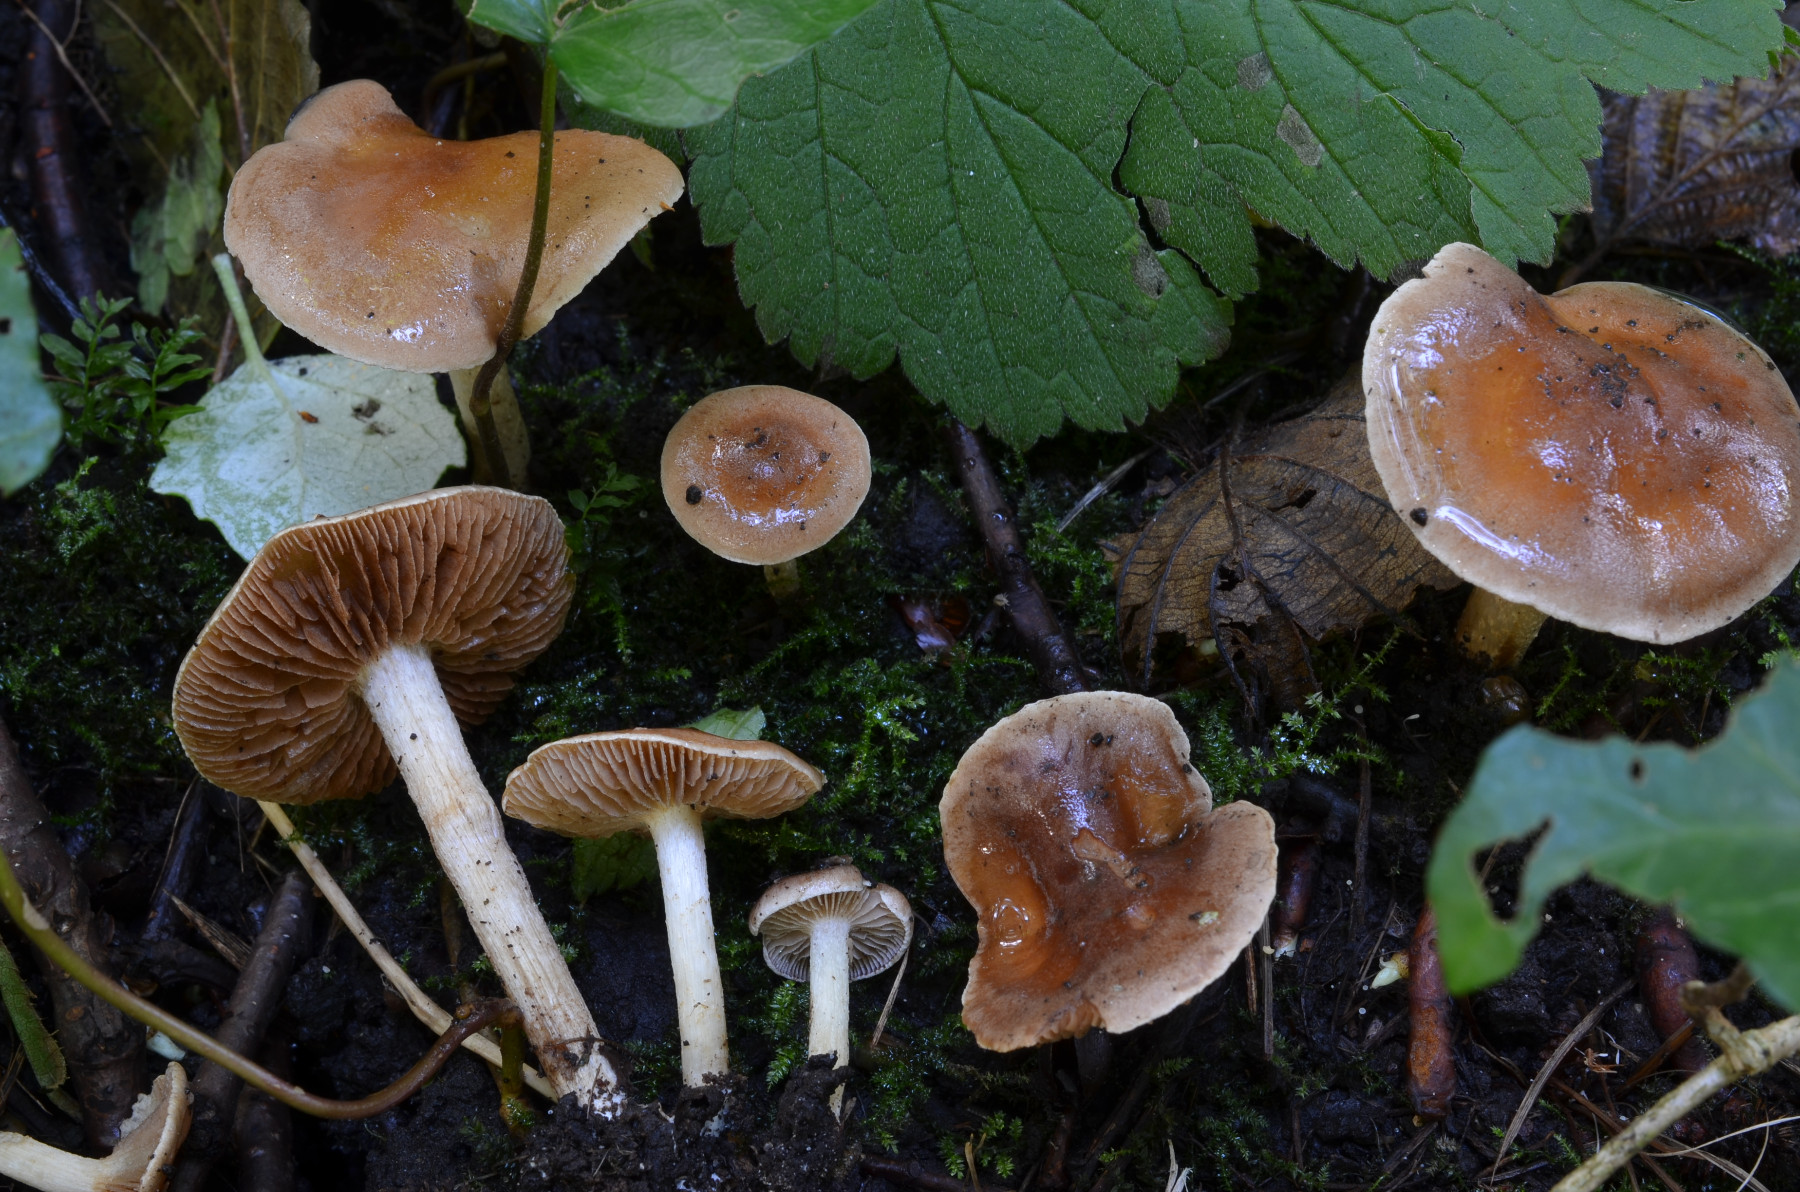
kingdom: Fungi
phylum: Basidiomycota
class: Agaricomycetes
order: Agaricales
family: Hymenogastraceae
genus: Hebeloma
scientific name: Hebeloma rostratum
